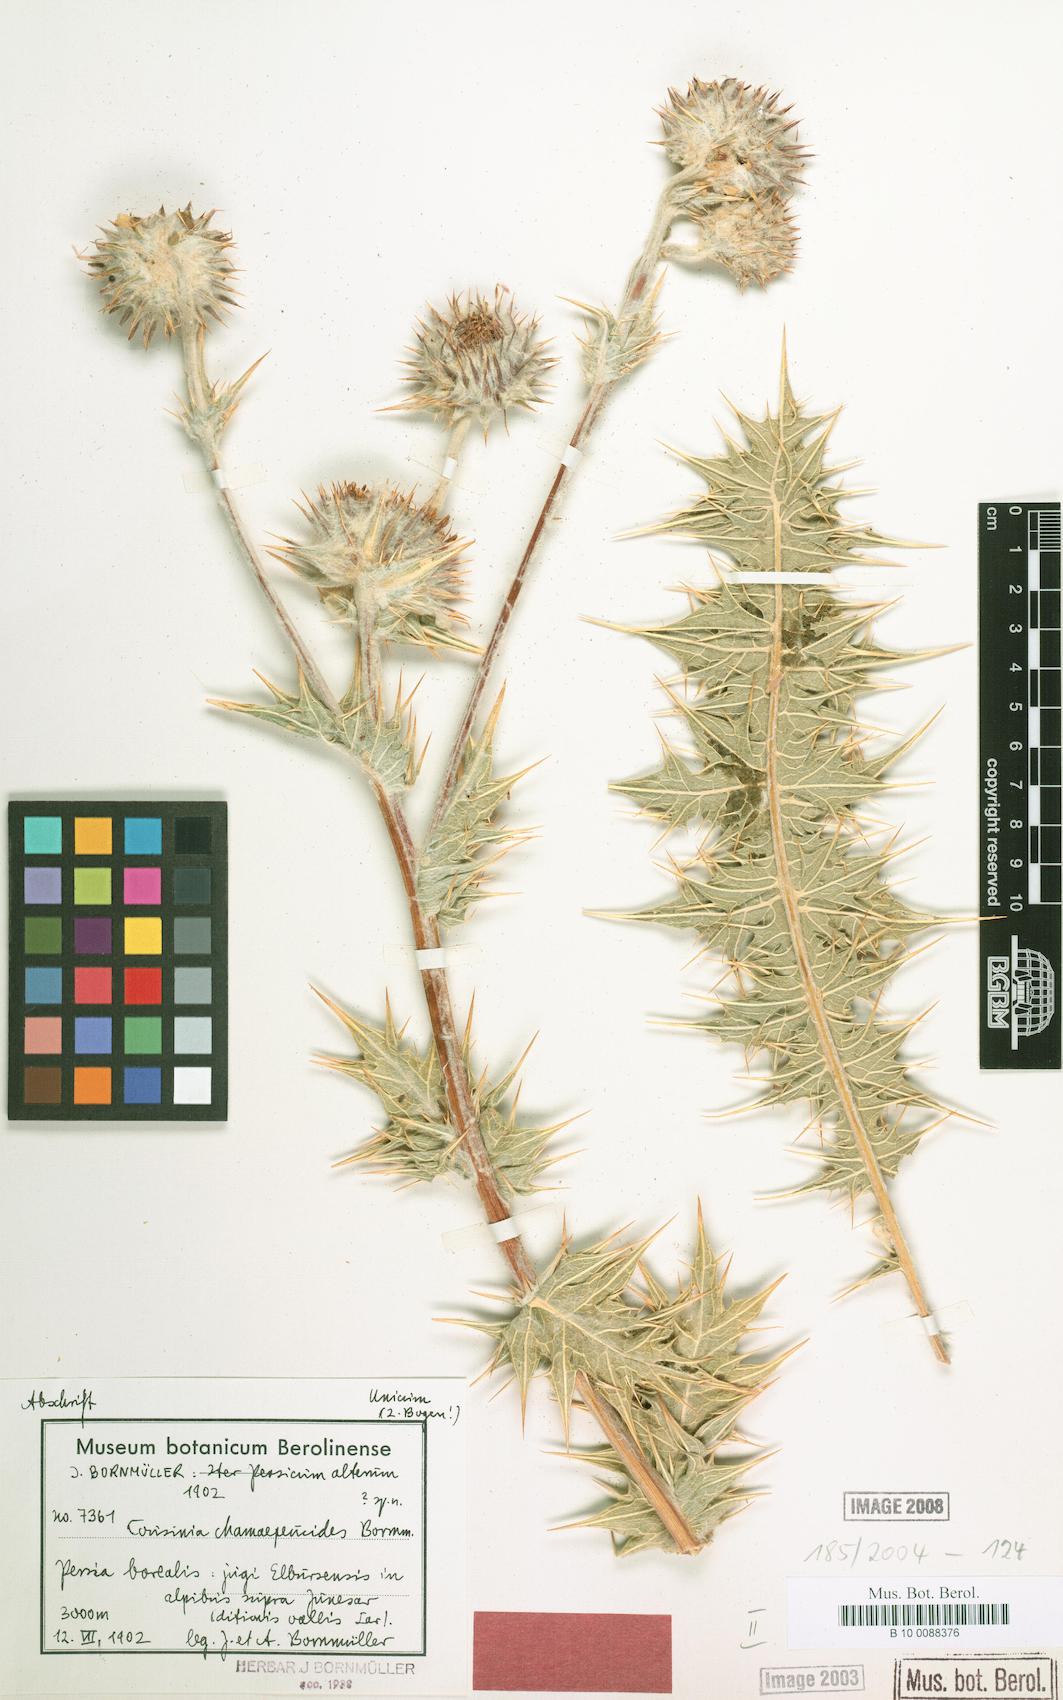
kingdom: Plantae
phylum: Tracheophyta
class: Magnoliopsida
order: Asterales
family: Asteraceae
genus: Cousinia
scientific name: Cousinia chamaepeuce
